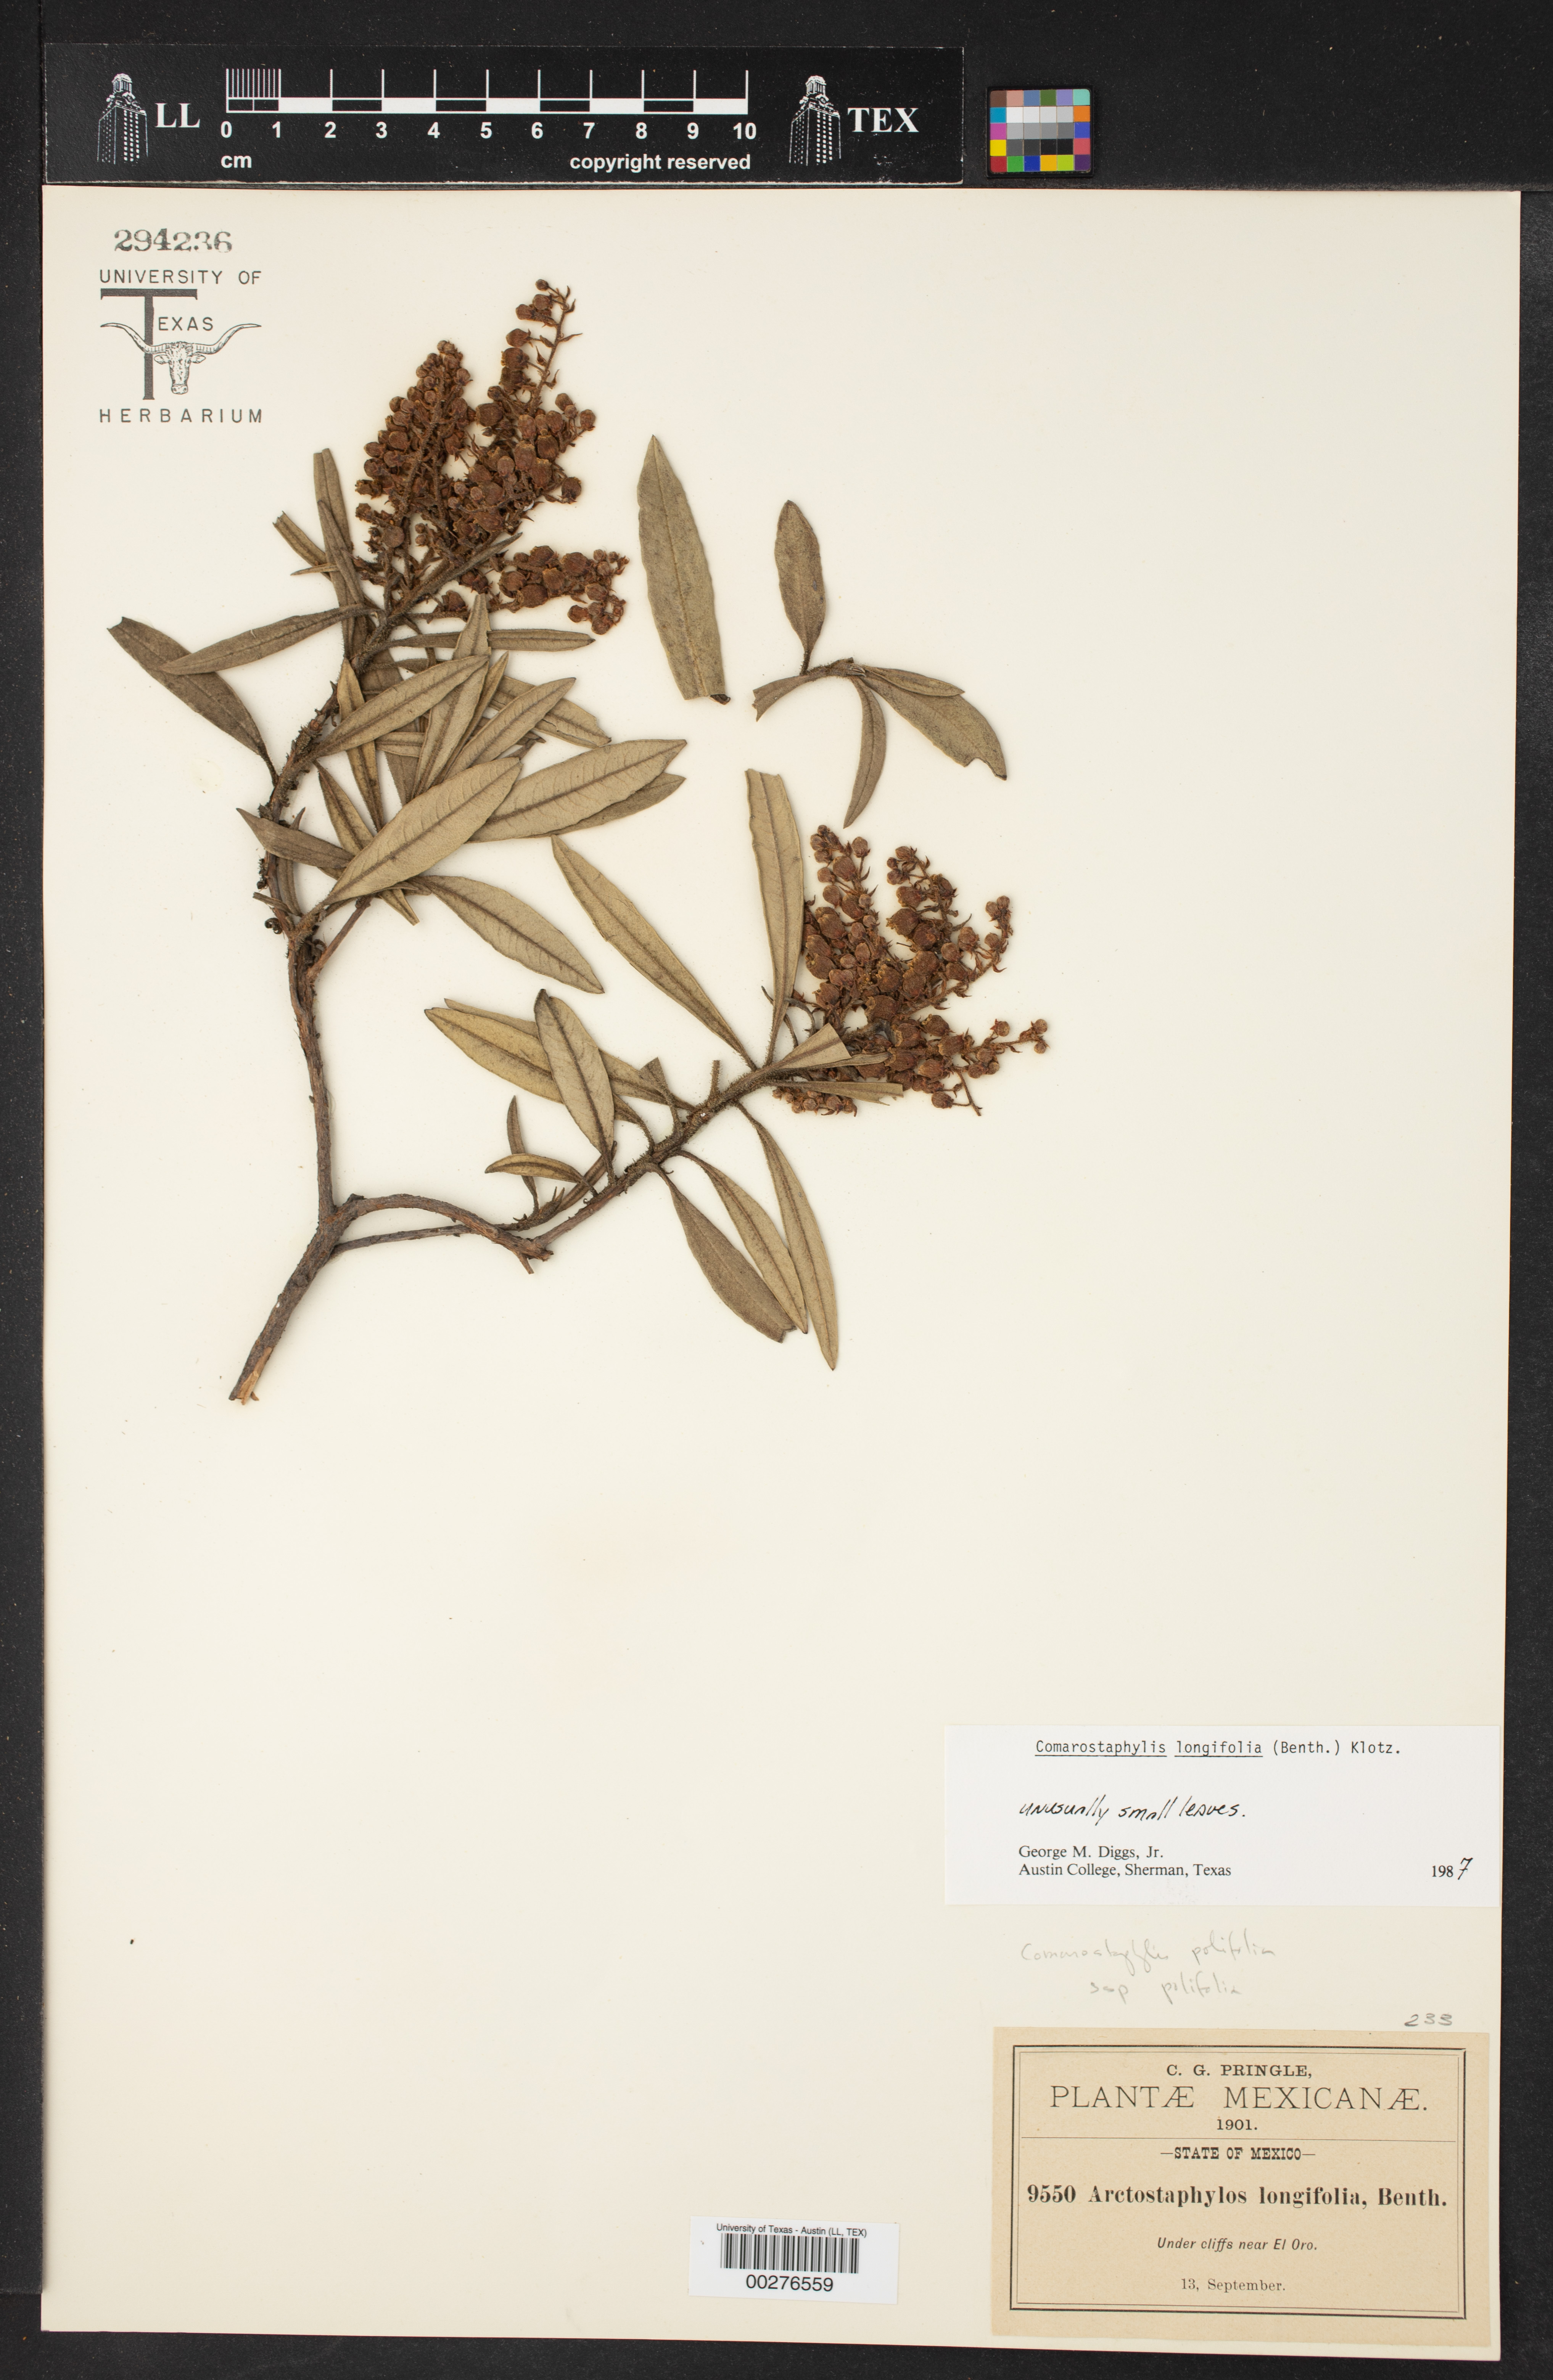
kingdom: Plantae
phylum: Tracheophyta
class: Magnoliopsida
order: Ericales
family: Ericaceae
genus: Comarostaphylis
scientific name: Comarostaphylis longifolia
